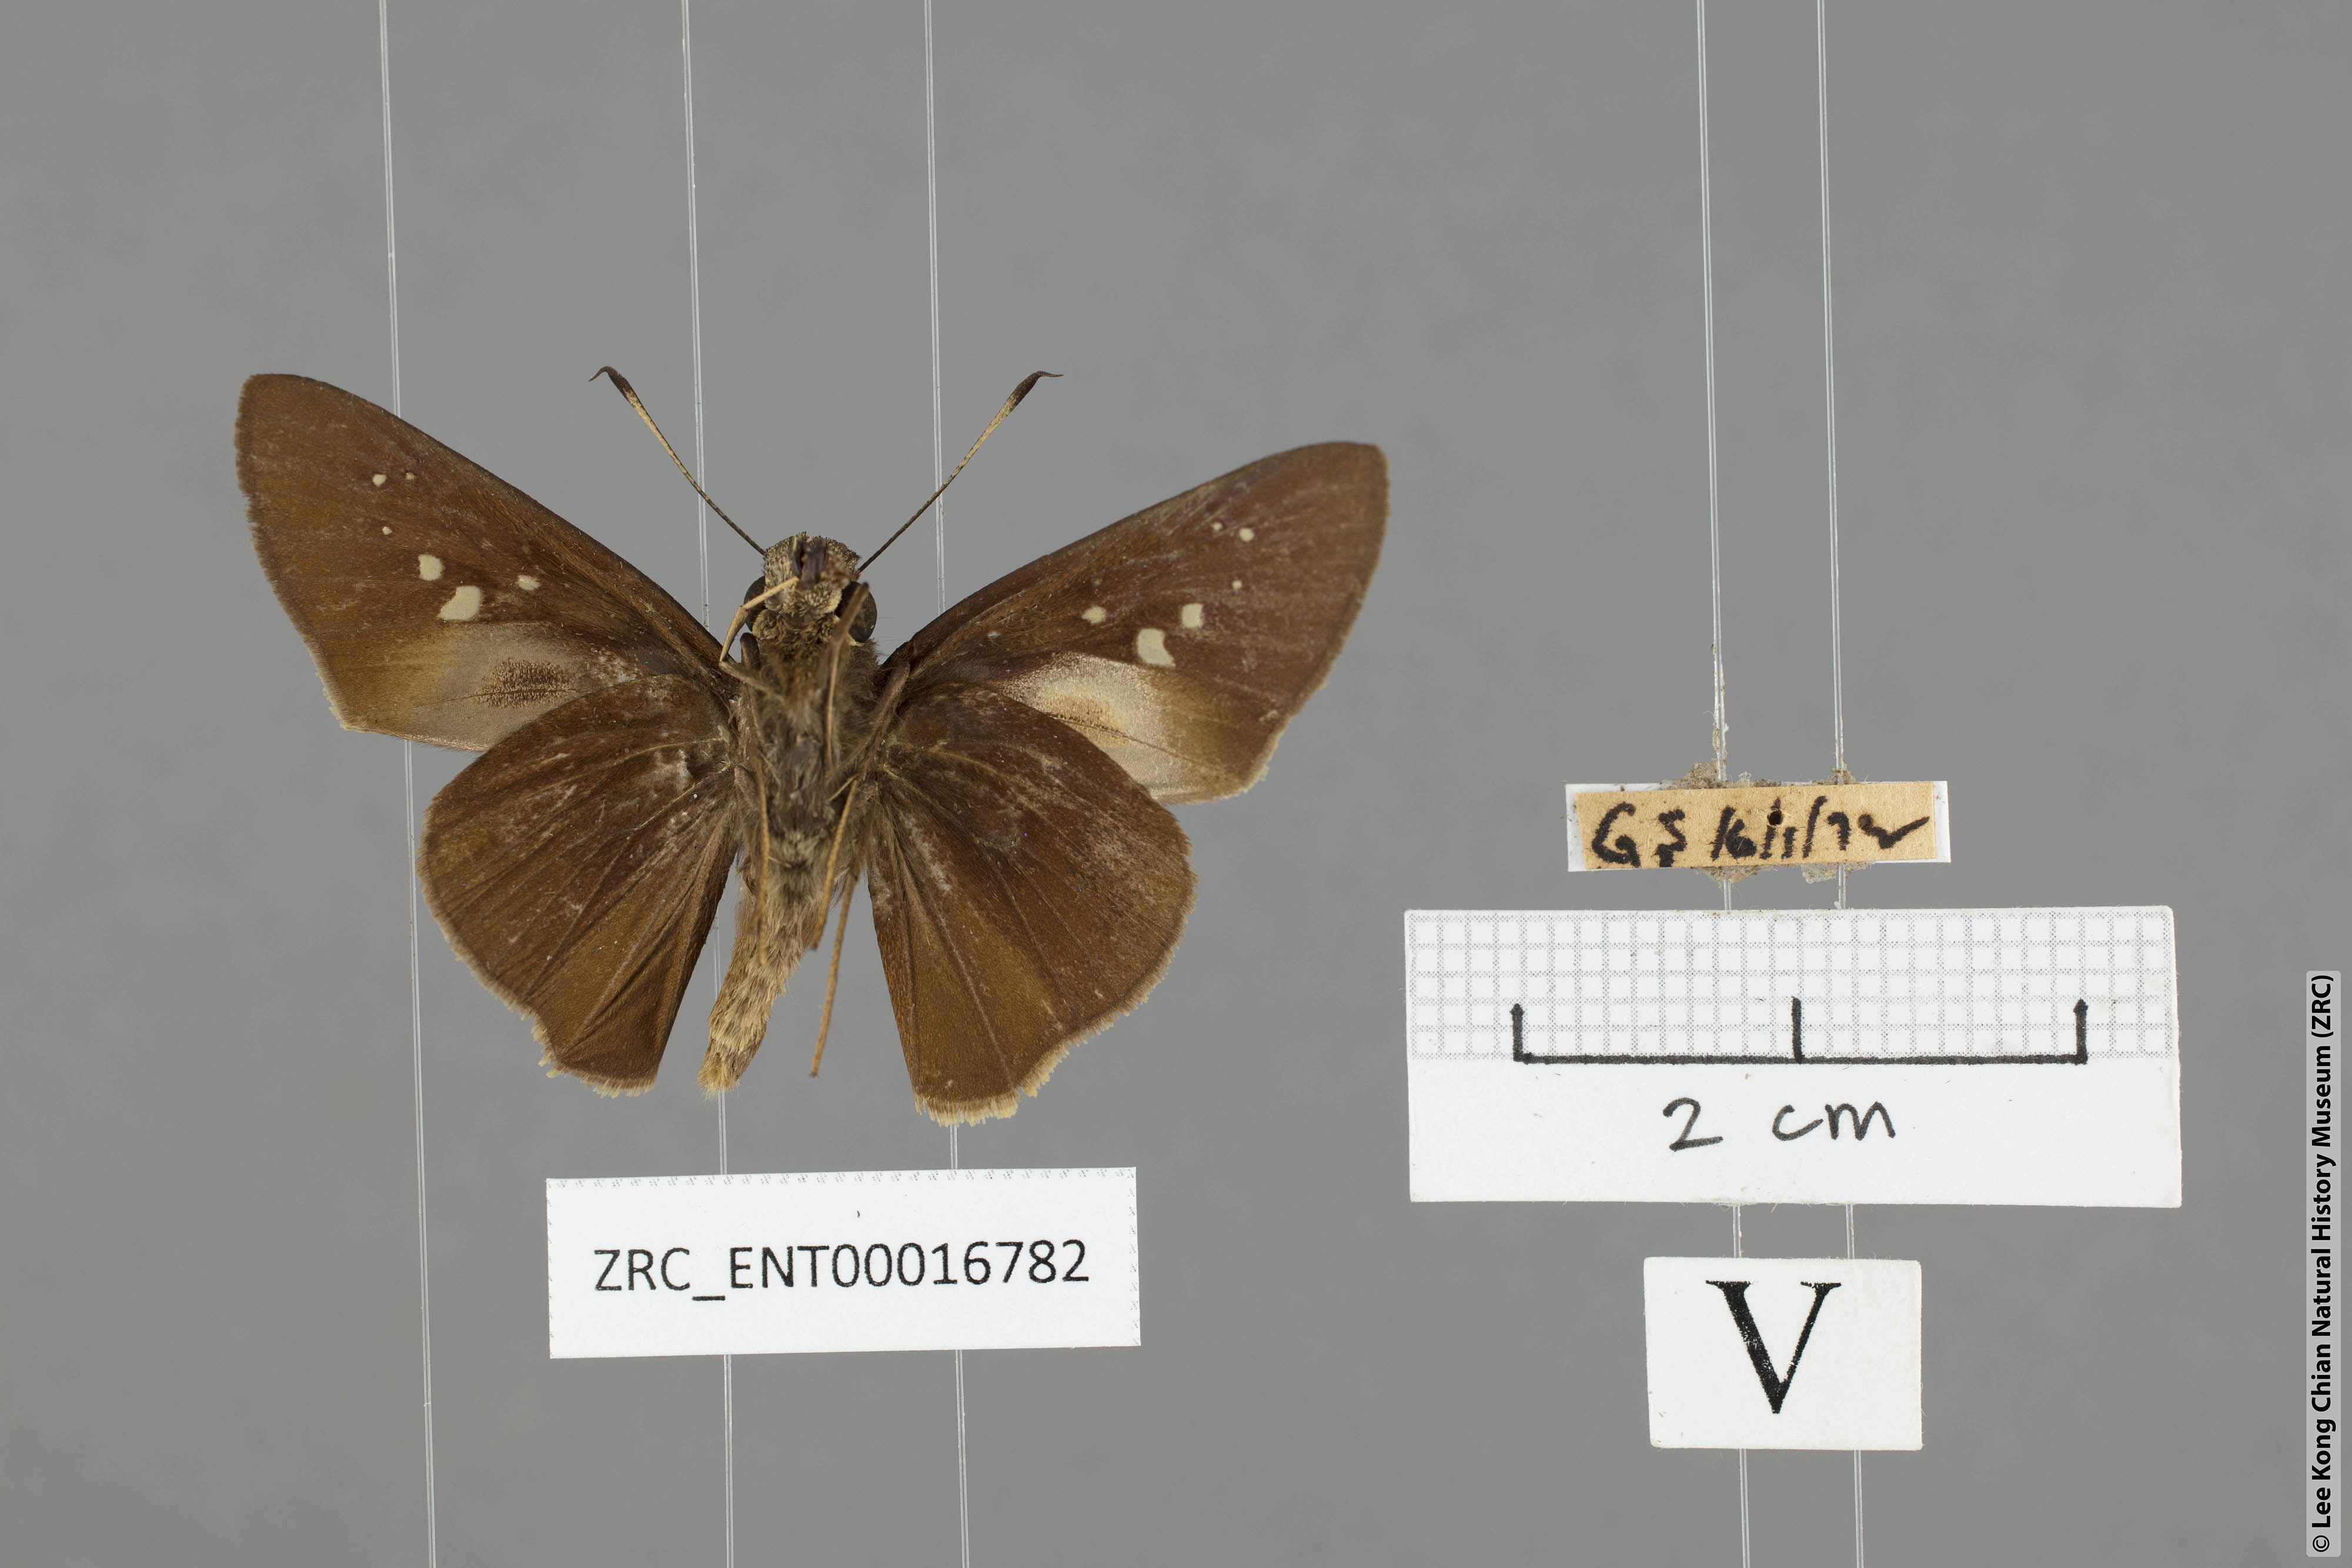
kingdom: Animalia
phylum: Arthropoda
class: Insecta
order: Lepidoptera
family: Hesperiidae
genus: Baoris
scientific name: Baoris farri
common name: Paintbrush swift
